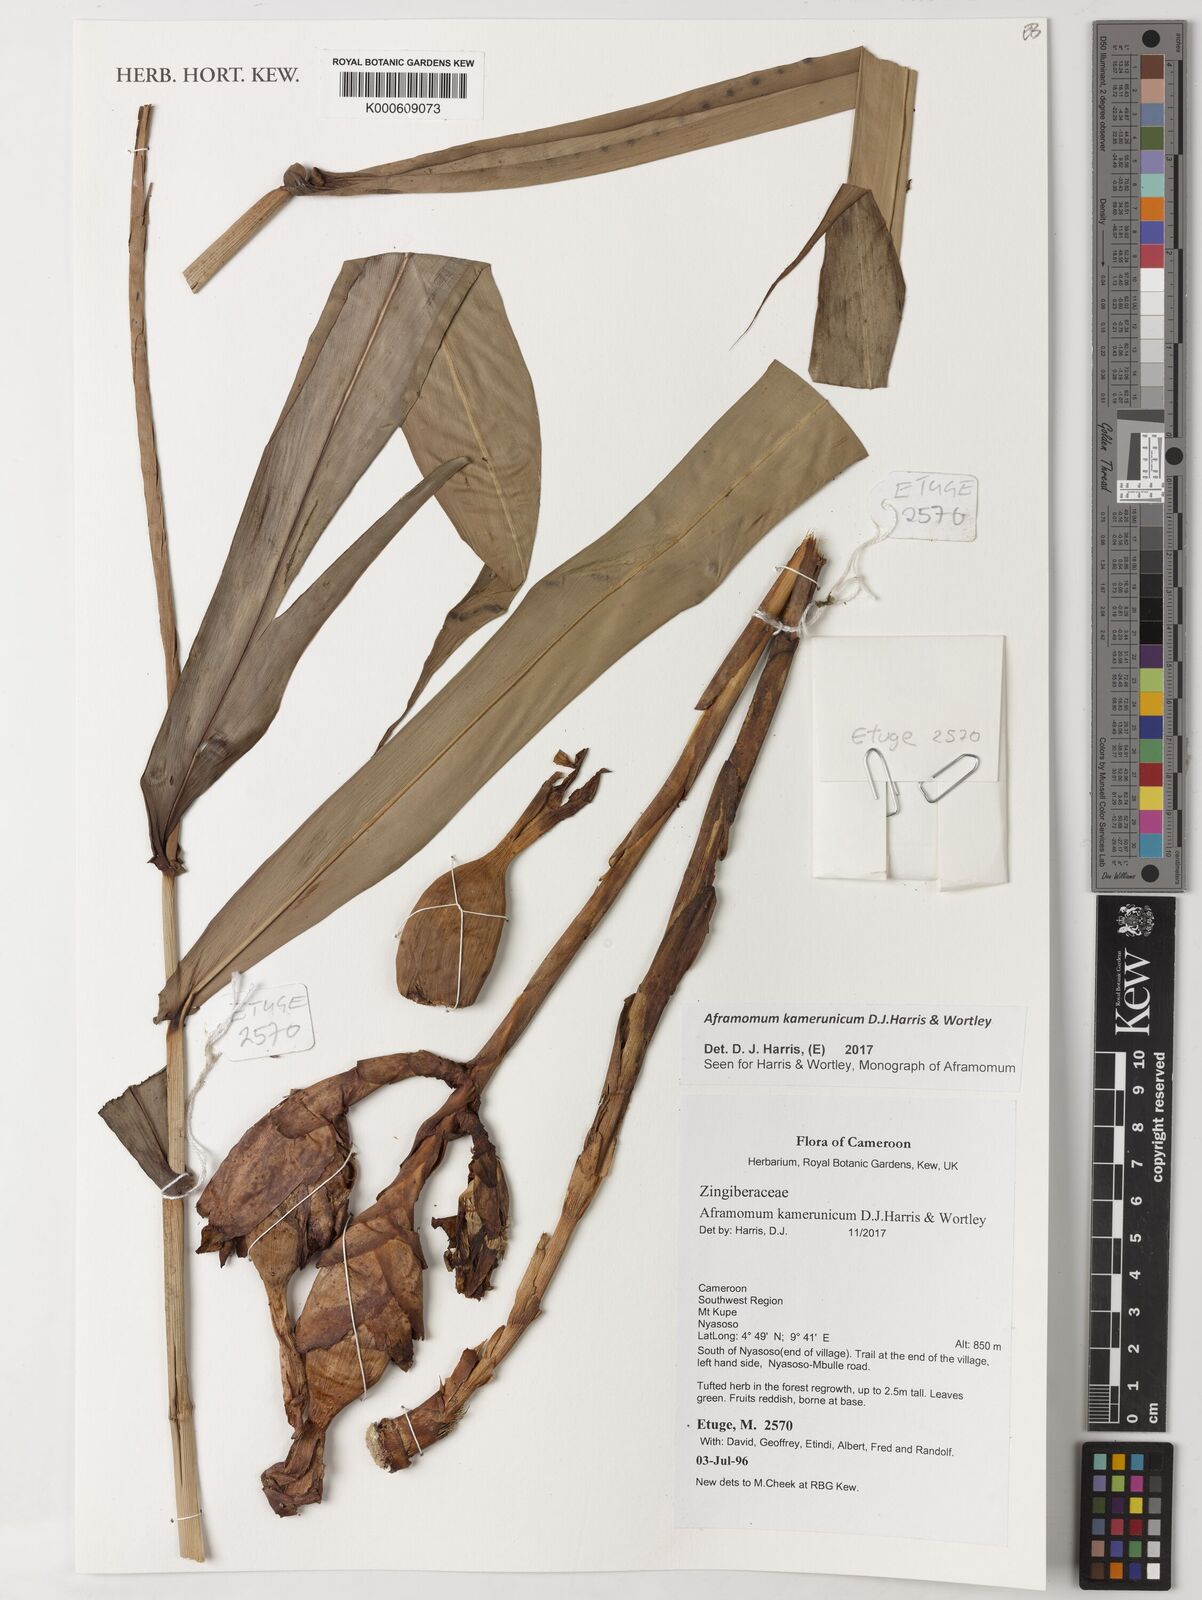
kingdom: Plantae
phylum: Tracheophyta
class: Liliopsida
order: Zingiberales
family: Zingiberaceae
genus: Aframomum
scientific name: Aframomum kamerunicum
